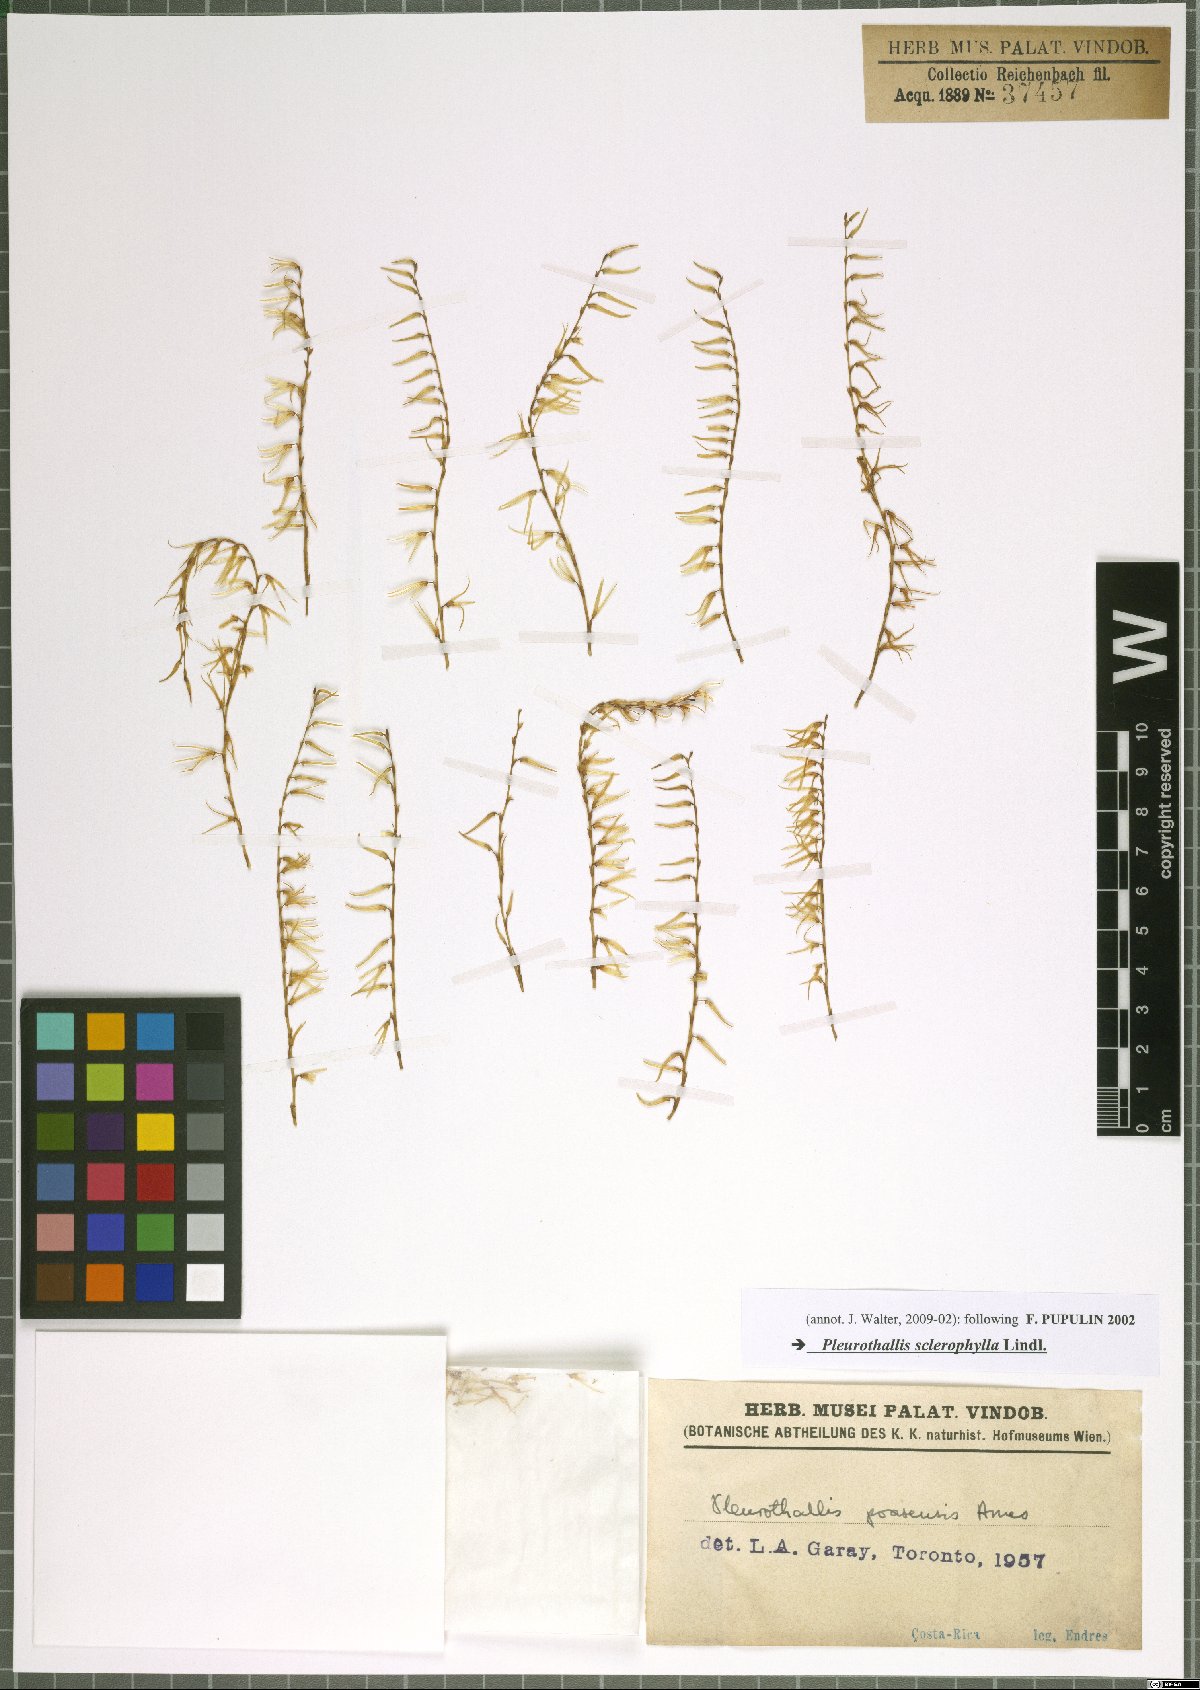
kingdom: Plantae
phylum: Tracheophyta
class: Liliopsida
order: Asparagales
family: Orchidaceae
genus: Stelis
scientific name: Stelis sclerophylla
